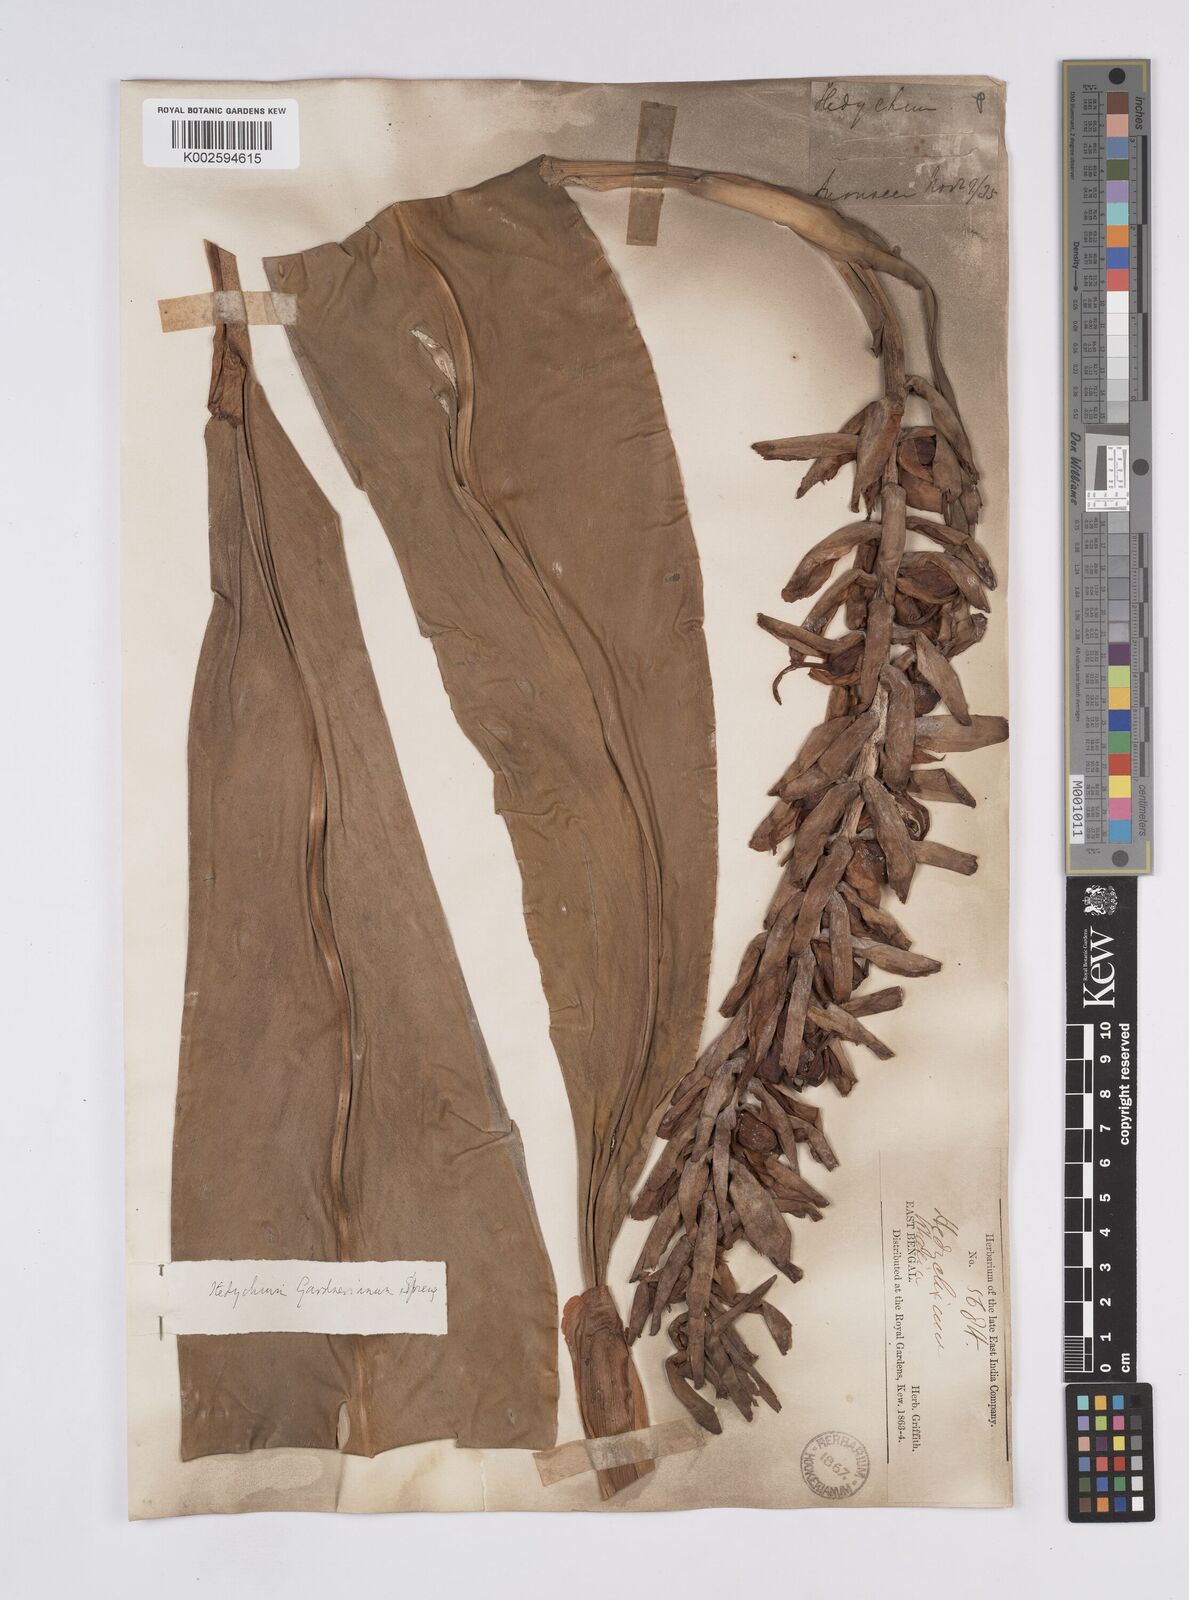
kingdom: Plantae
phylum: Tracheophyta
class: Liliopsida
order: Zingiberales
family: Zingiberaceae
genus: Hedychium
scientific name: Hedychium gardnerianum
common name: Himalayan ginger
